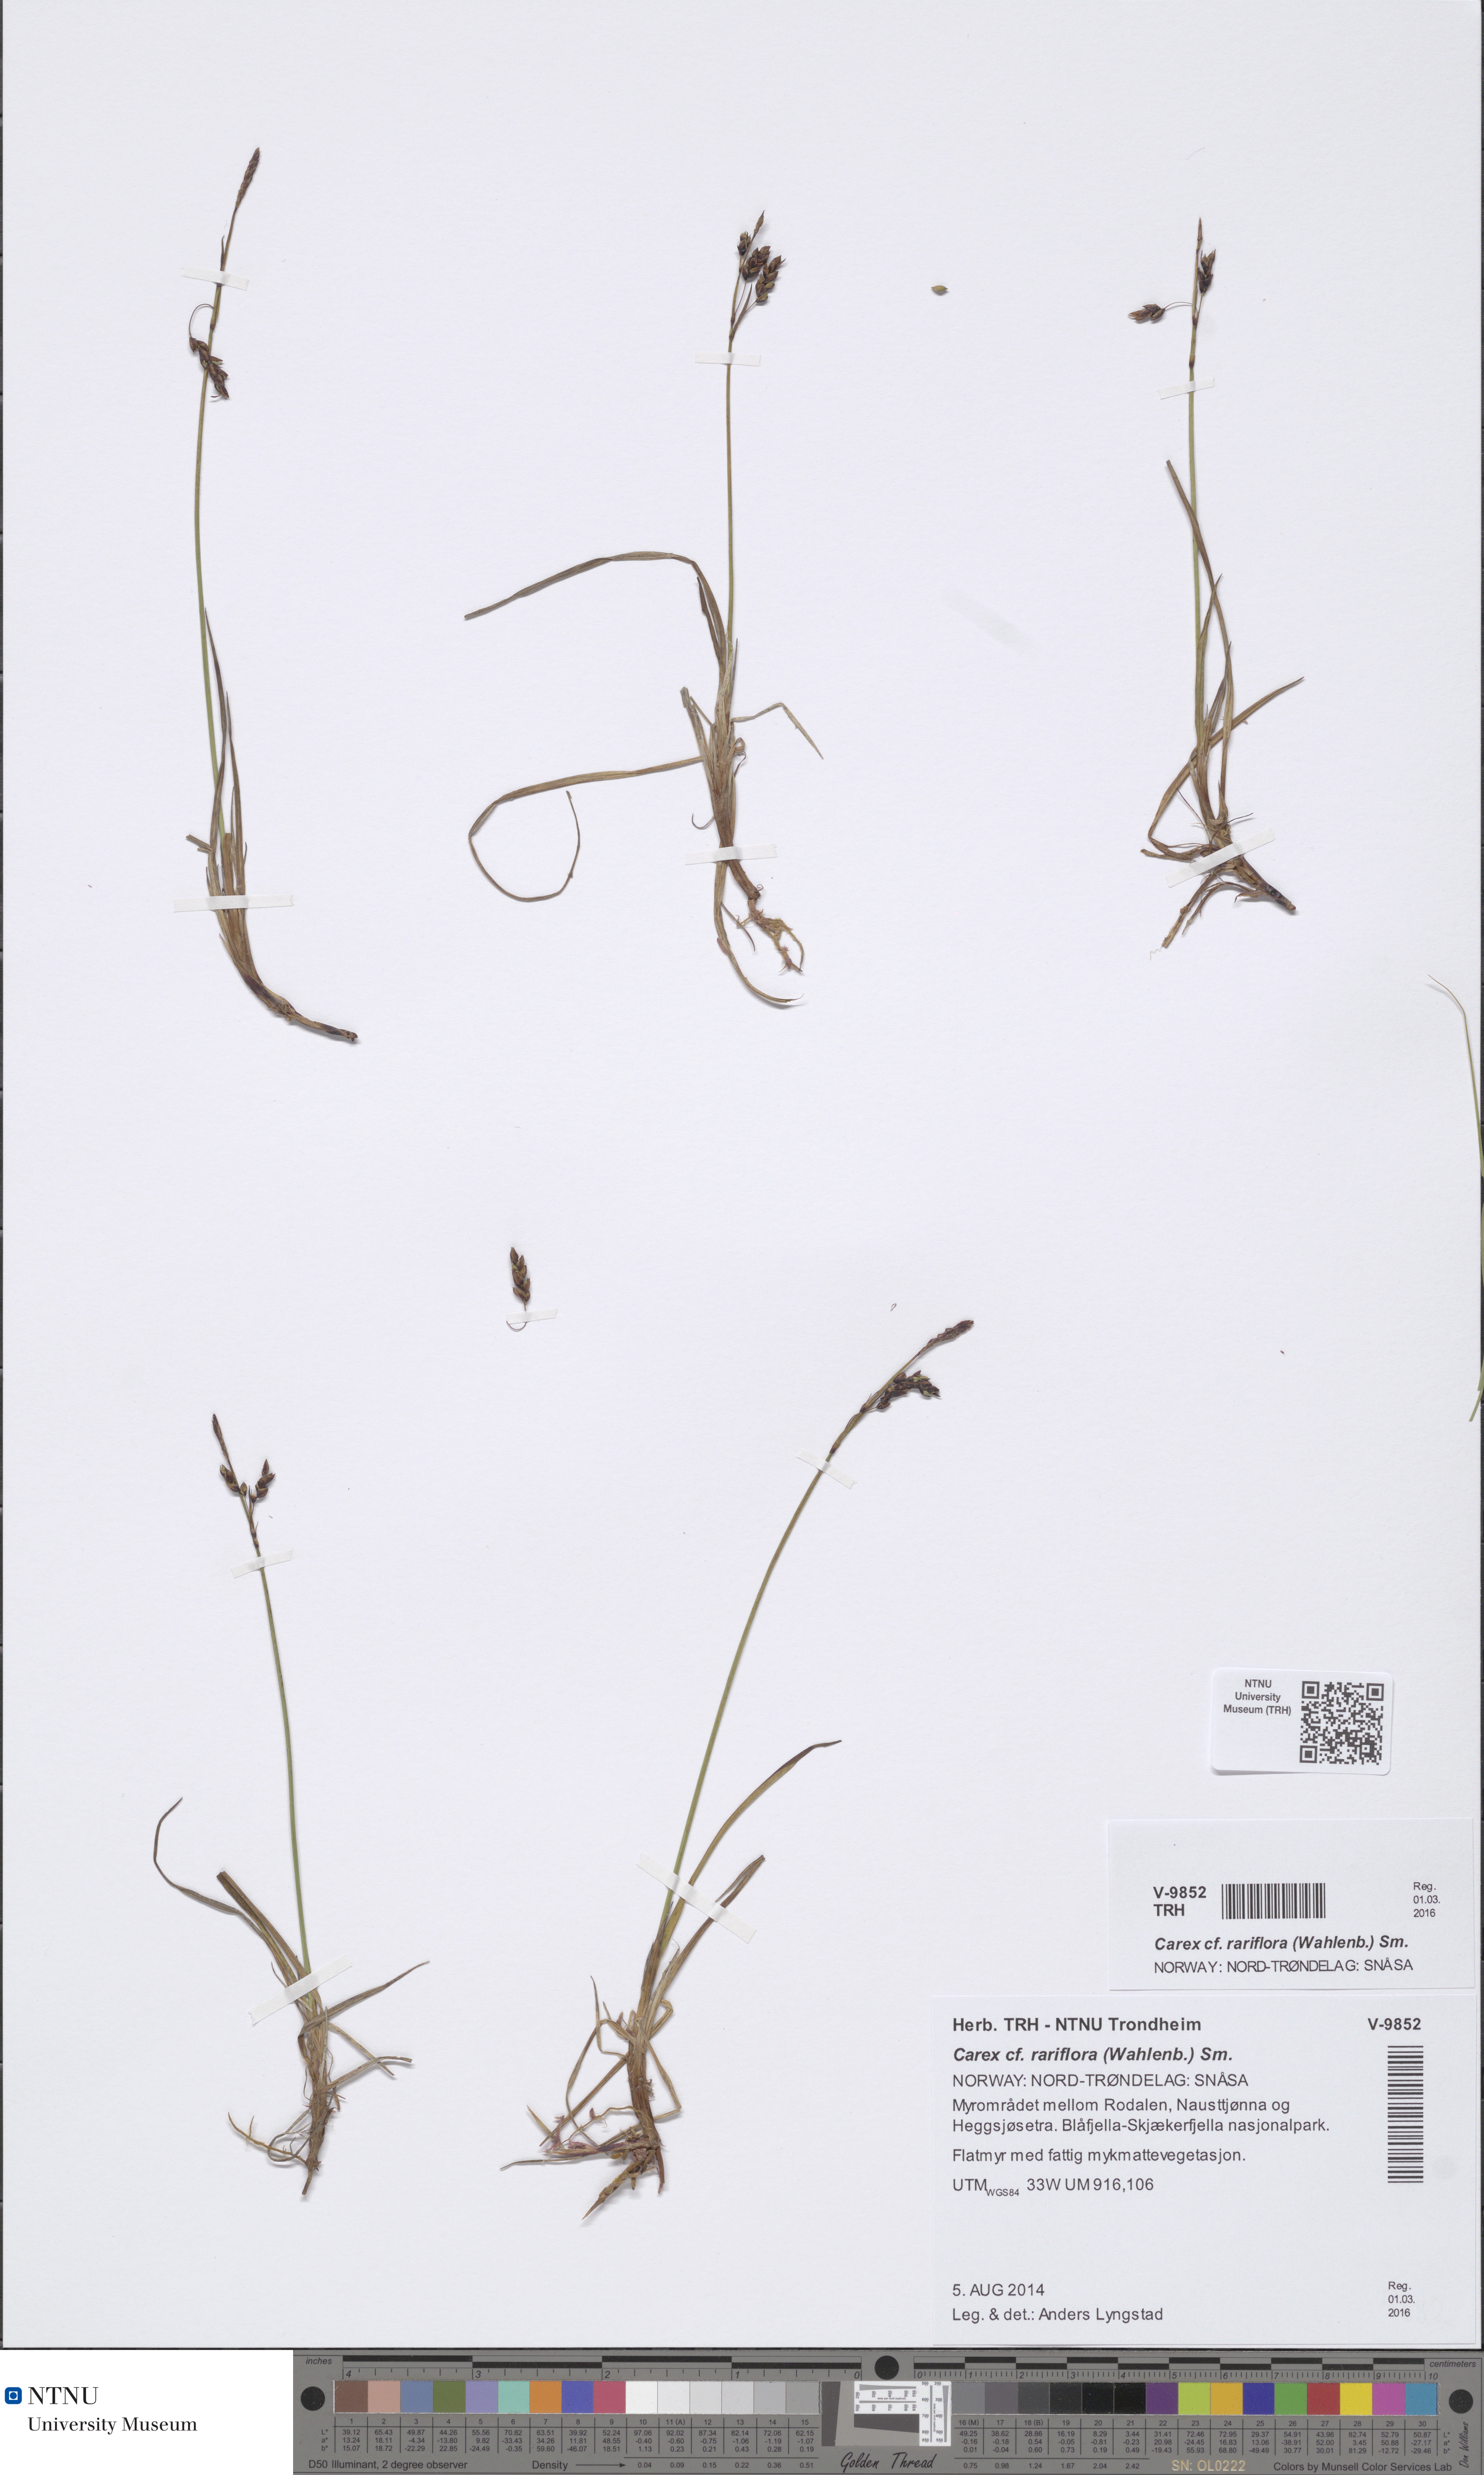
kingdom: Plantae
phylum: Tracheophyta
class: Liliopsida
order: Poales
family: Cyperaceae
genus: Carex
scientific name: Carex rariflora
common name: Loose-flowered alpine sedge
